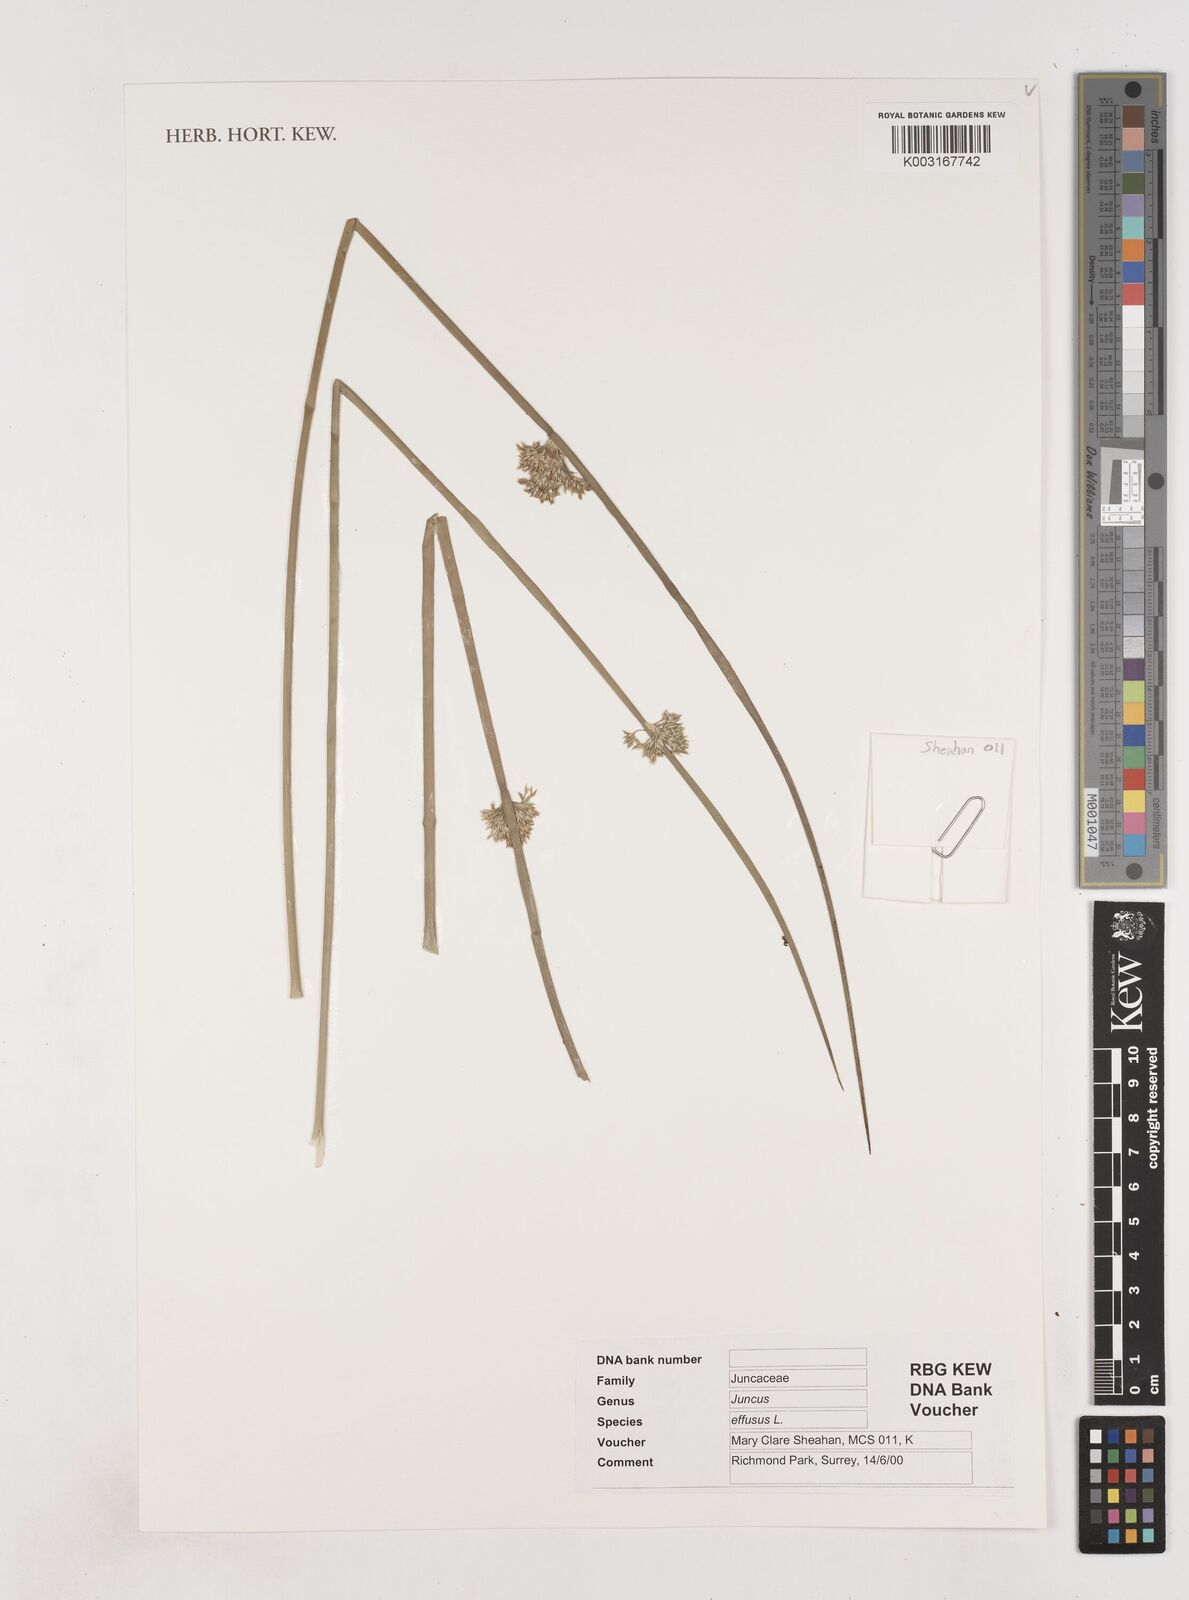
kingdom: Plantae
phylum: Tracheophyta
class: Liliopsida
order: Poales
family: Juncaceae
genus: Juncus
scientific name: Juncus effusus
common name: Soft rush
